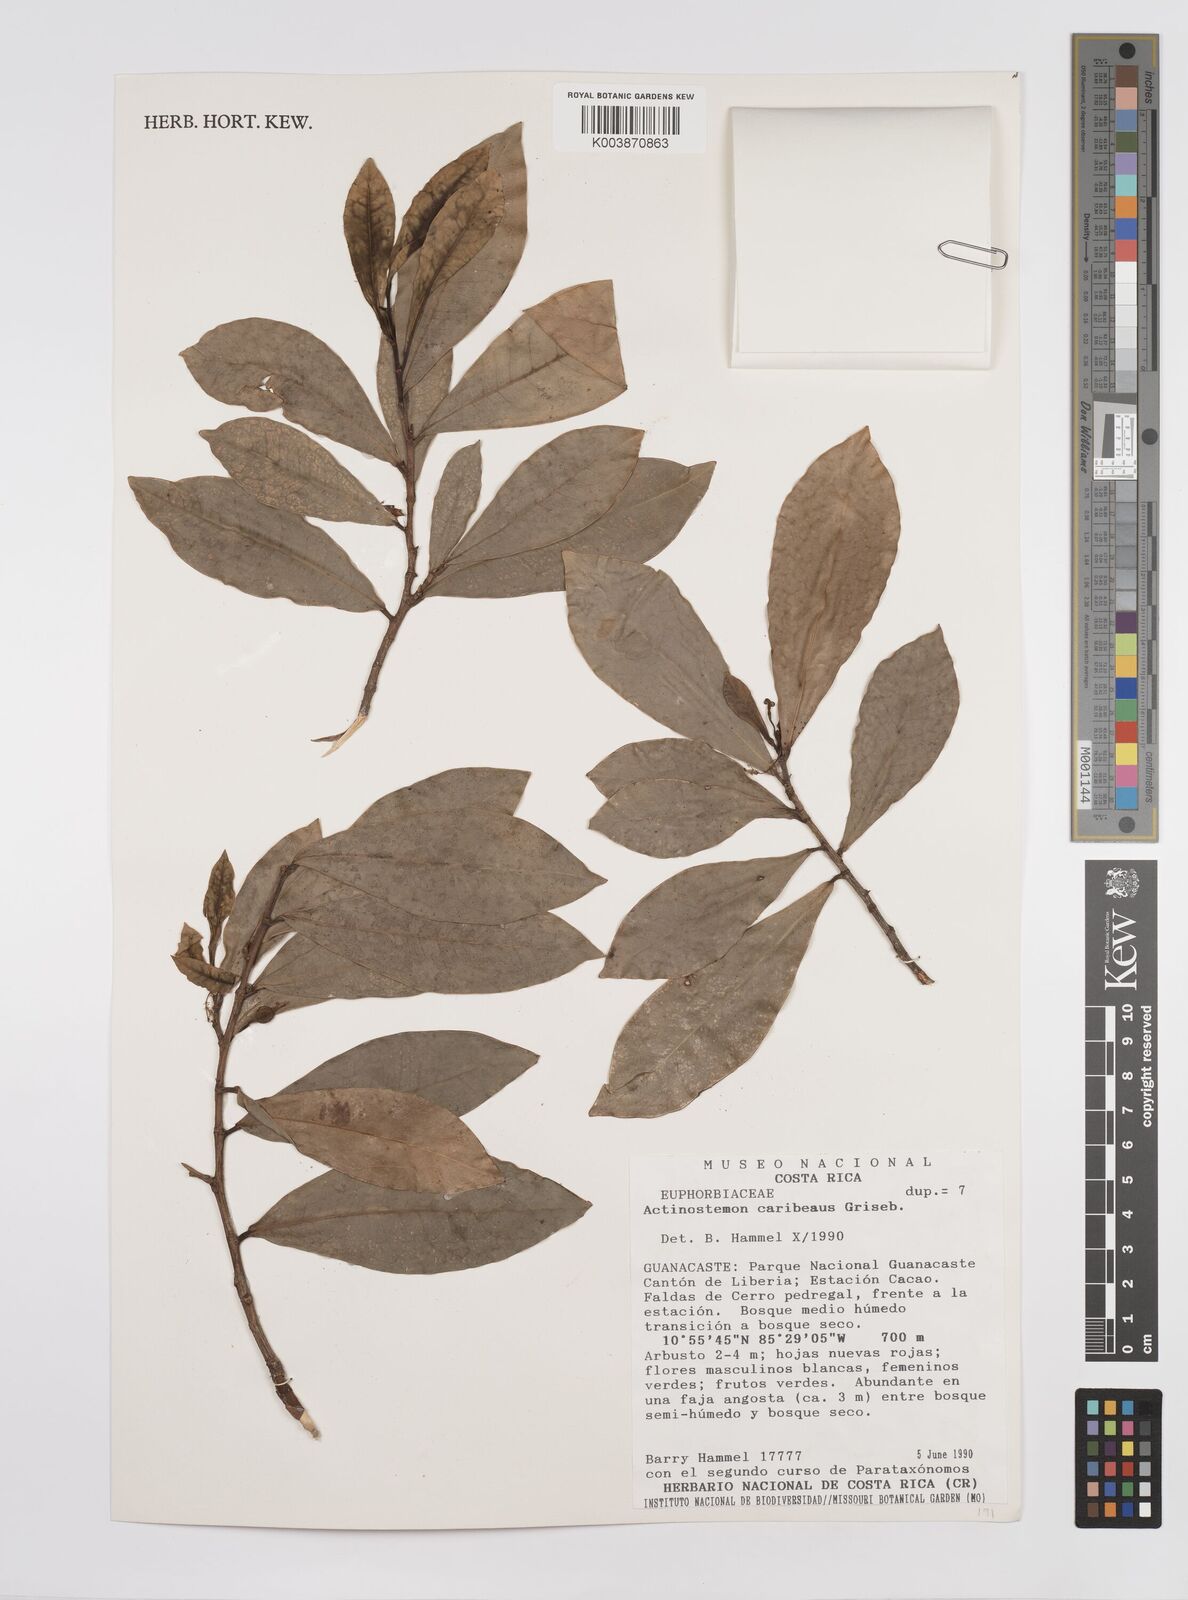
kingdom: Plantae
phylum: Tracheophyta
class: Magnoliopsida
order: Malpighiales
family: Euphorbiaceae
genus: Actinostemon
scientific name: Actinostemon caribaeus
